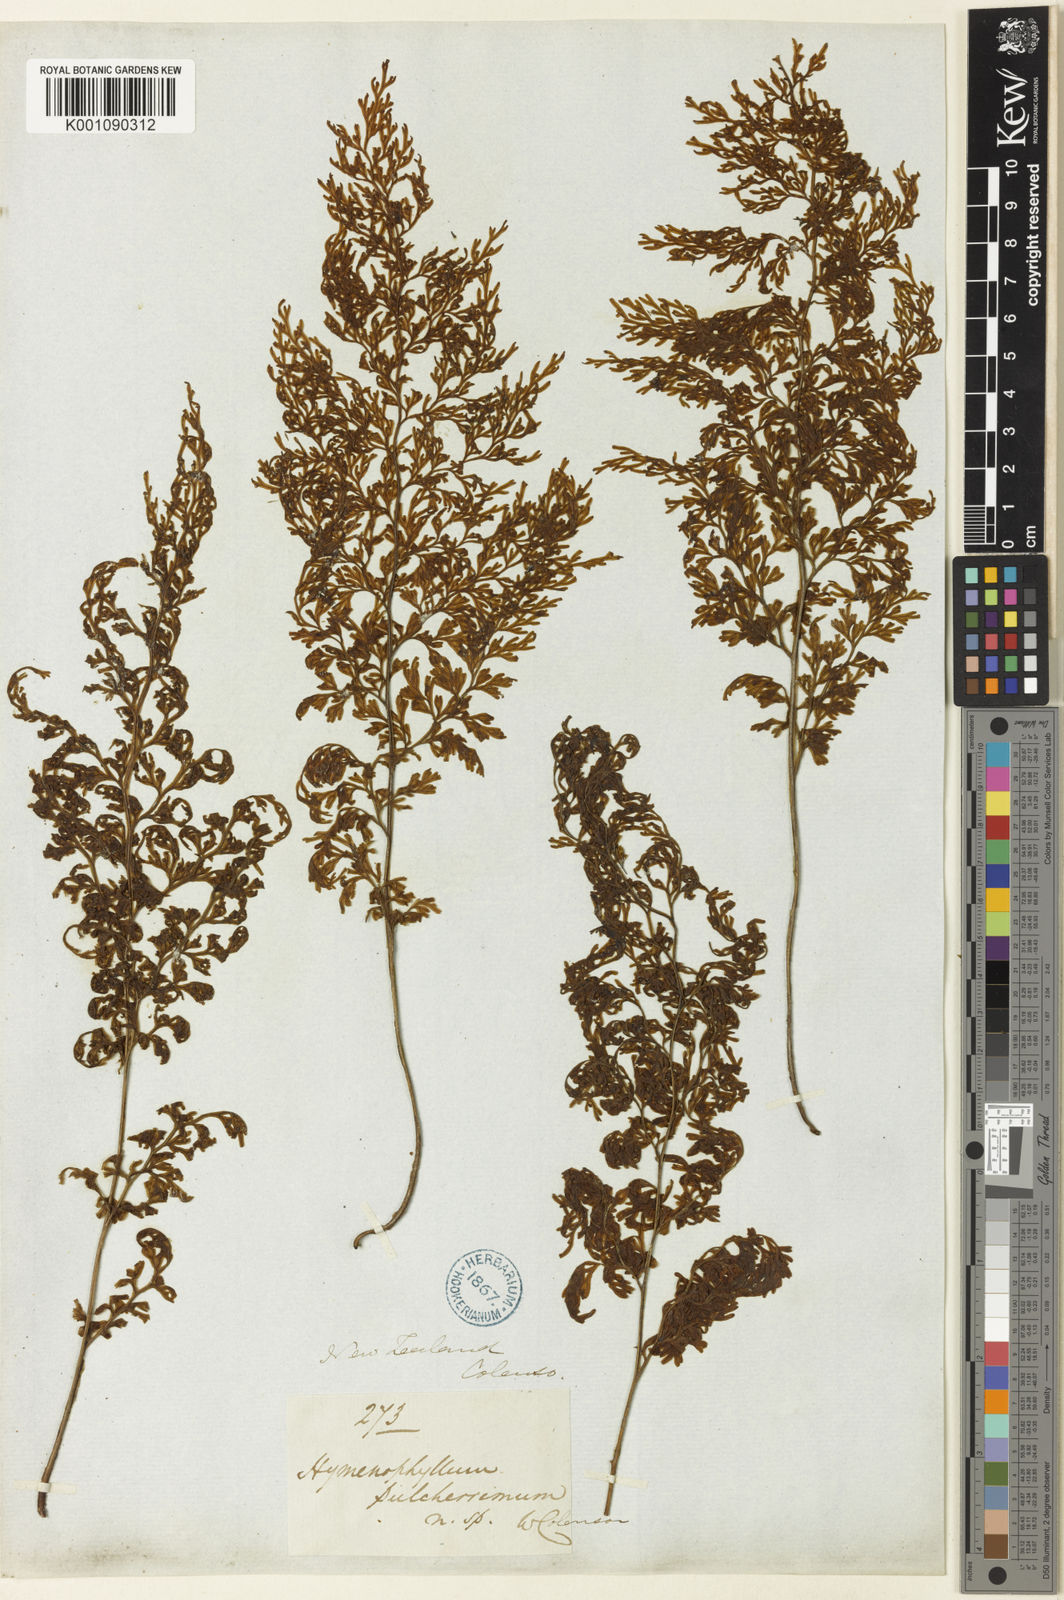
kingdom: Plantae
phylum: Tracheophyta
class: Polypodiopsida
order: Hymenophyllales
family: Hymenophyllaceae
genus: Hymenophyllum
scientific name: Hymenophyllum pulcherrimum
